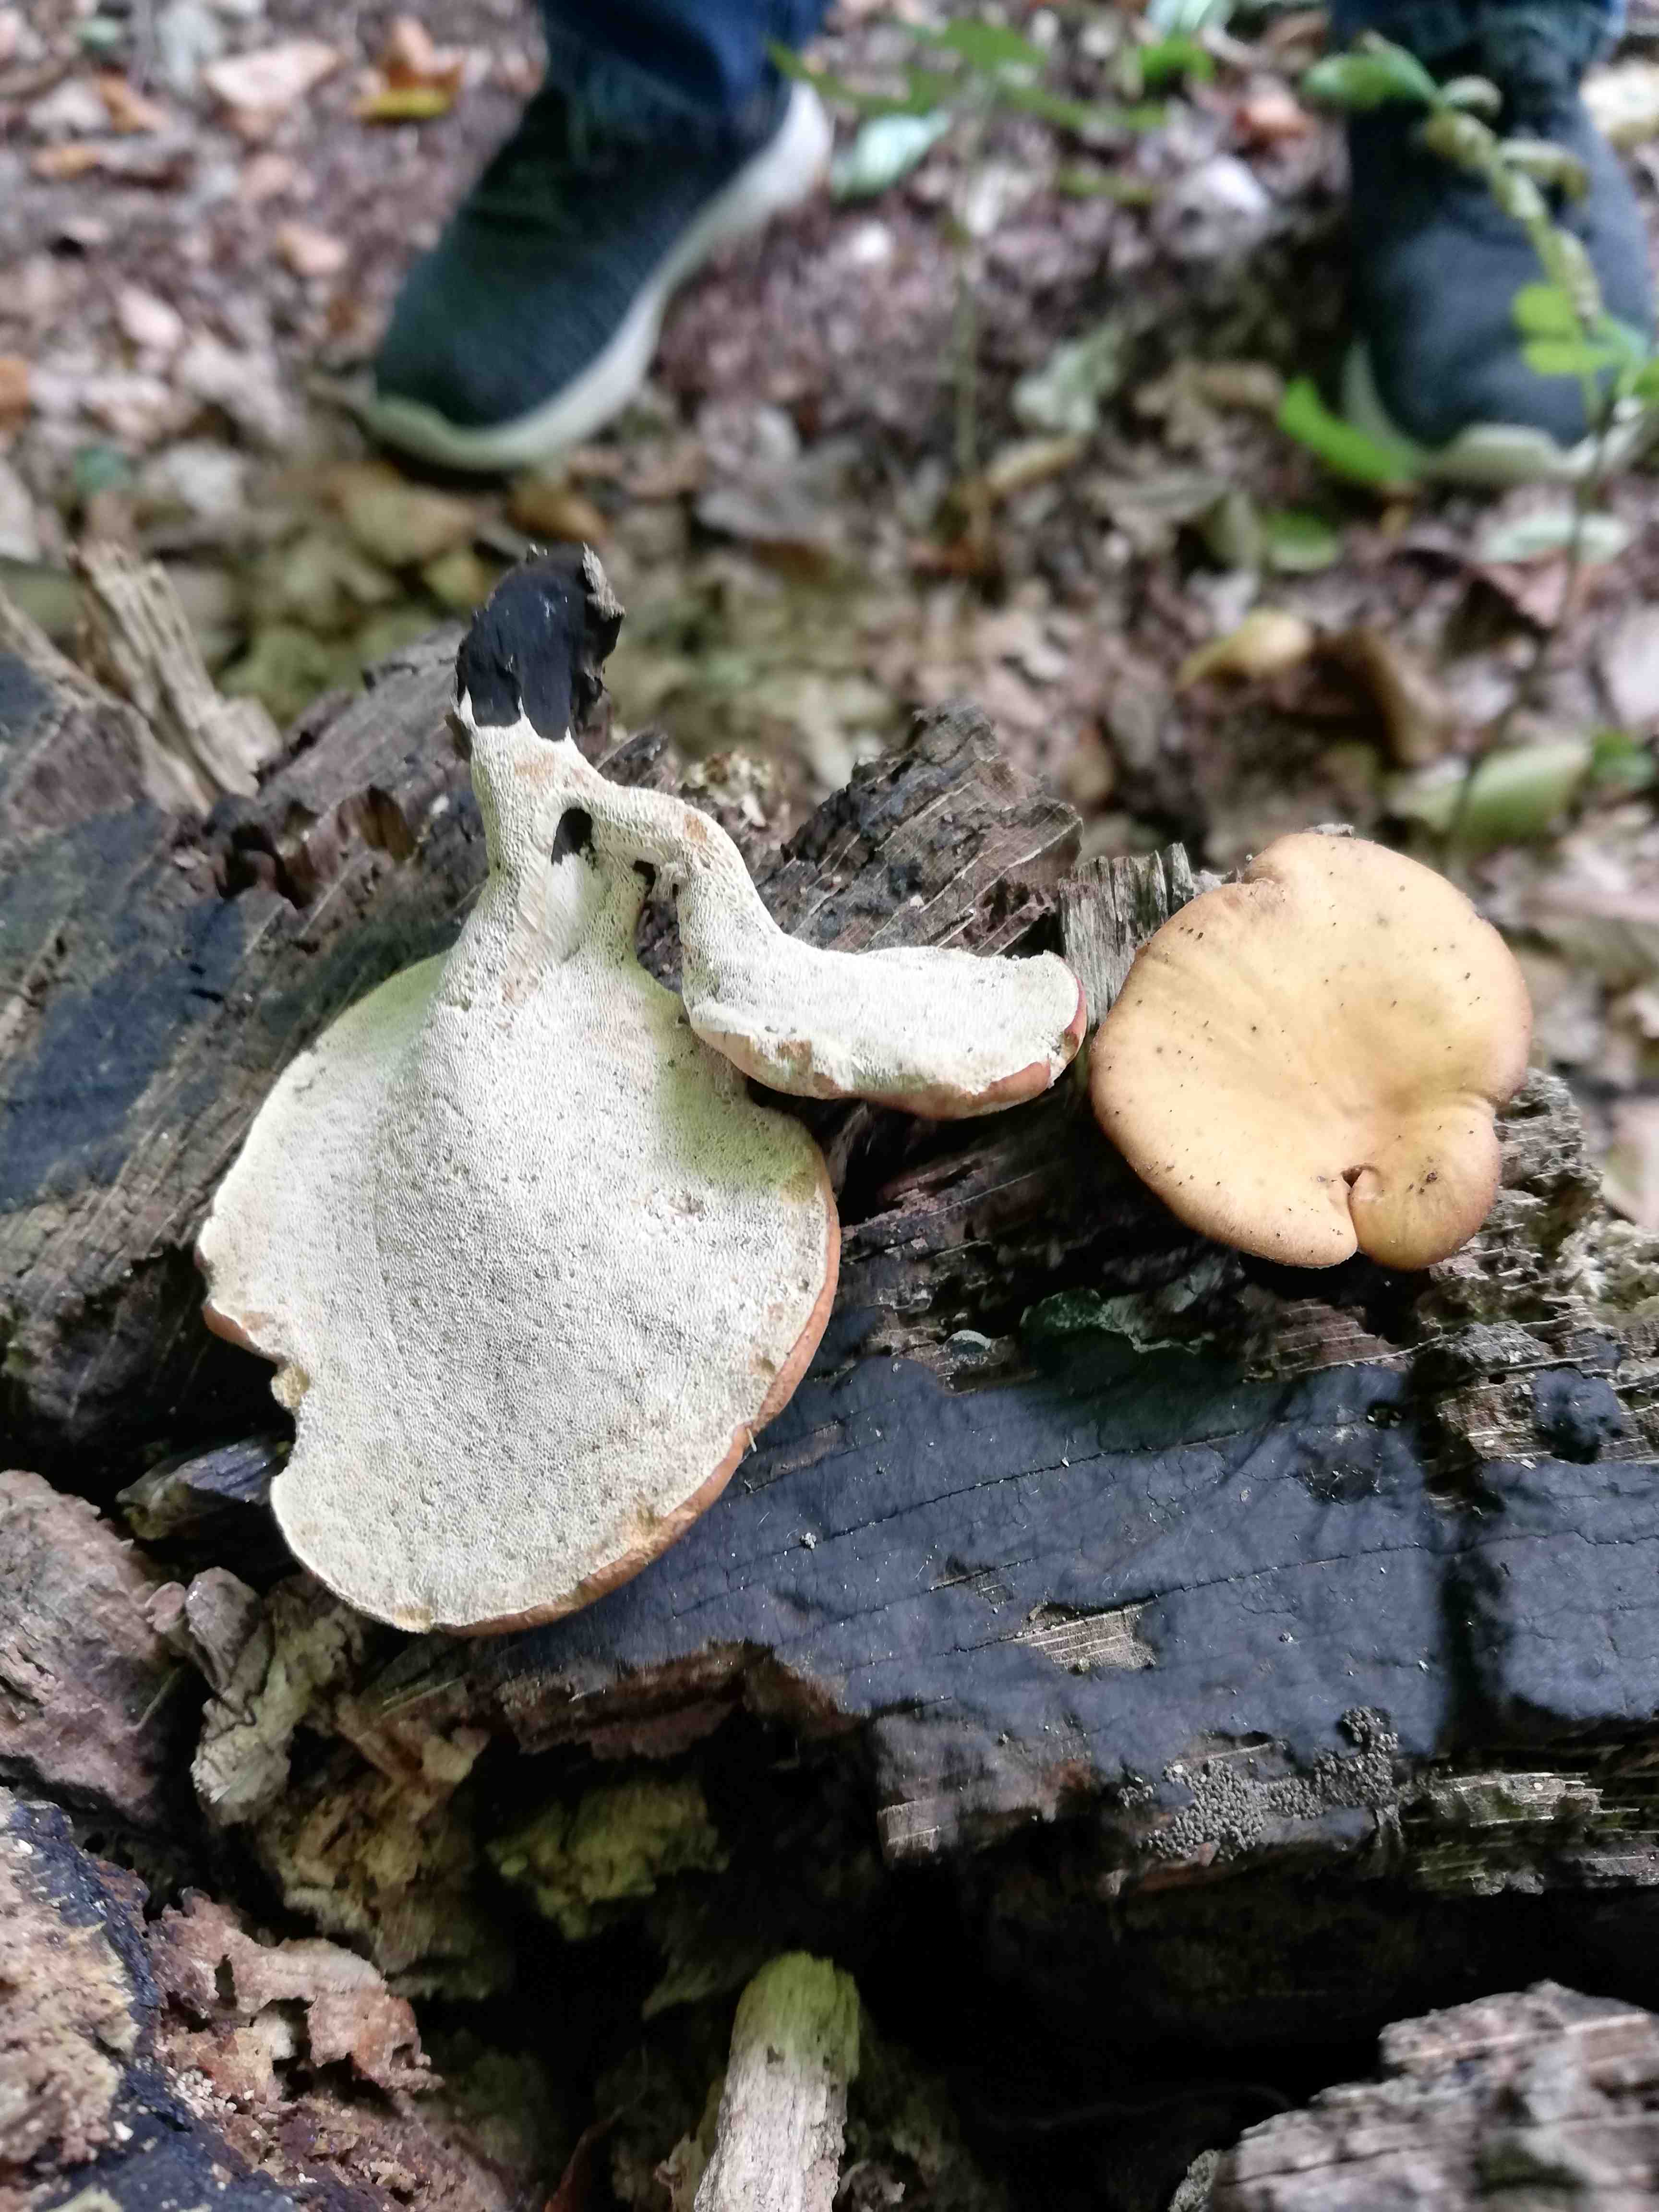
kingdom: Fungi
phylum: Basidiomycota
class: Agaricomycetes
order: Polyporales
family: Polyporaceae
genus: Cerioporus
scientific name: Cerioporus varius
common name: foranderlig stilkporesvamp
